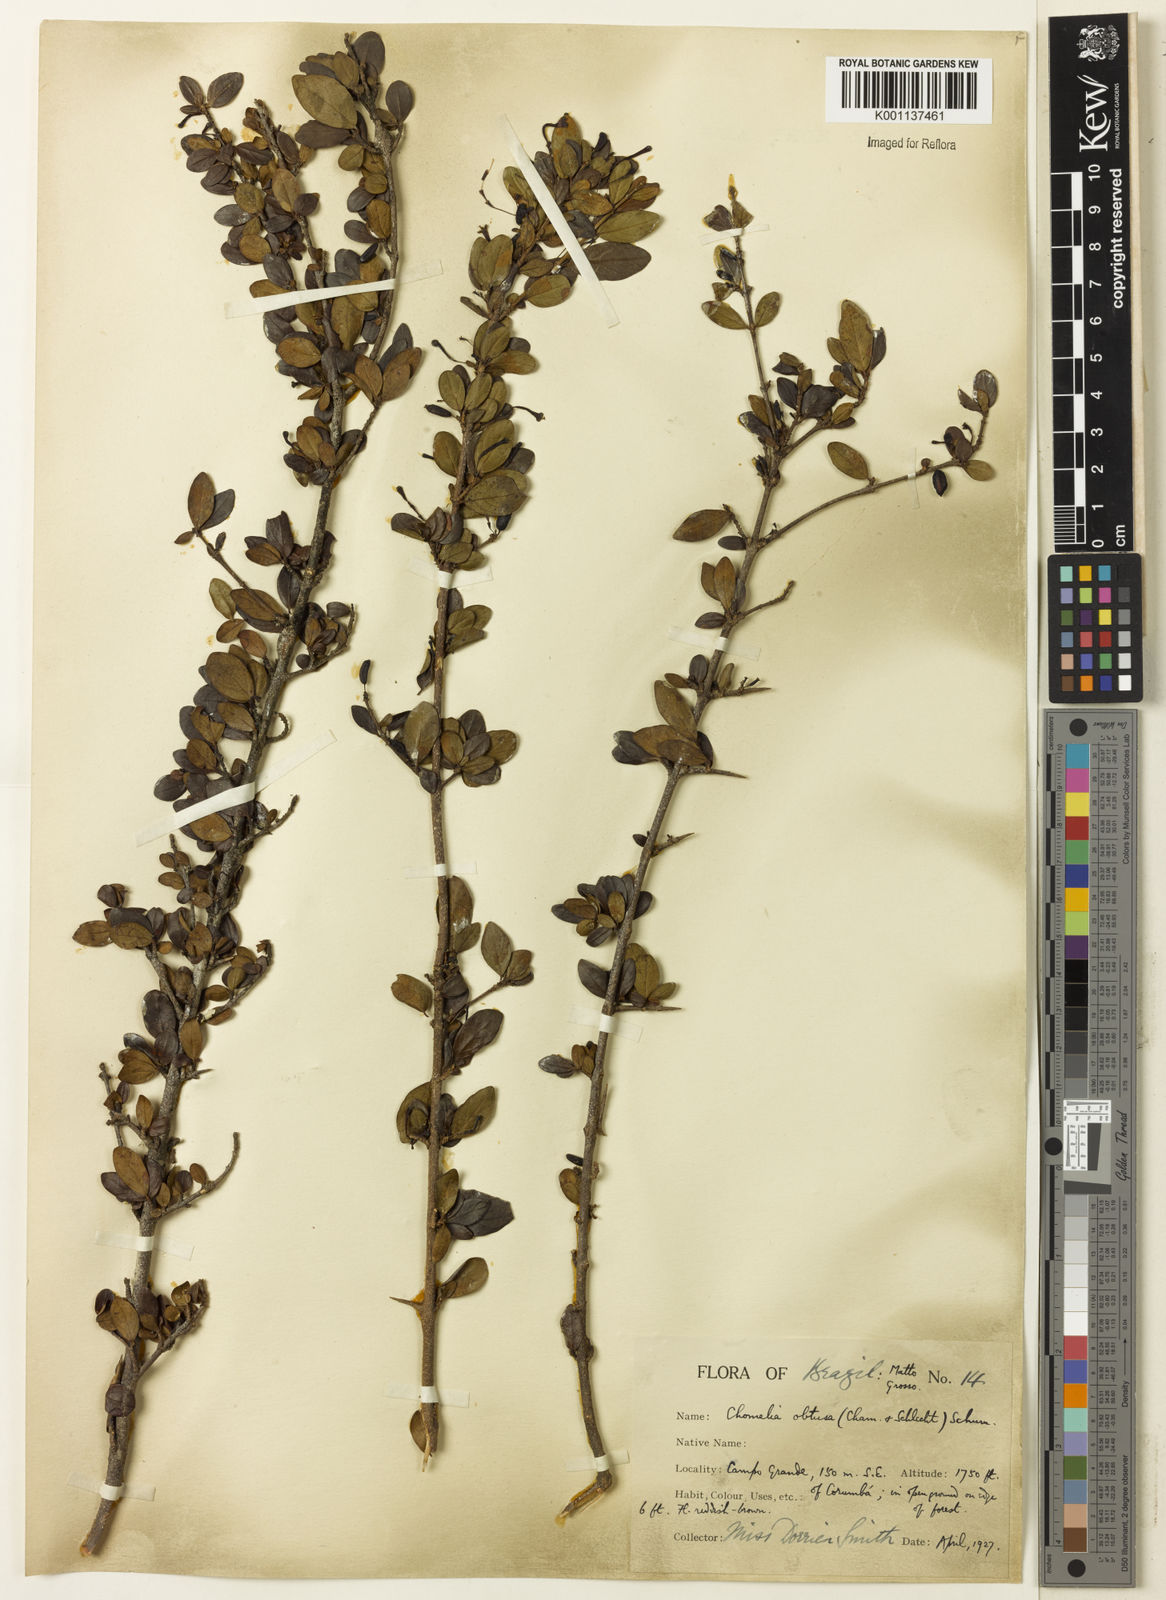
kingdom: Plantae
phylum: Tracheophyta
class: Magnoliopsida
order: Gentianales
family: Rubiaceae
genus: Chomelia
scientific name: Chomelia obtusa
